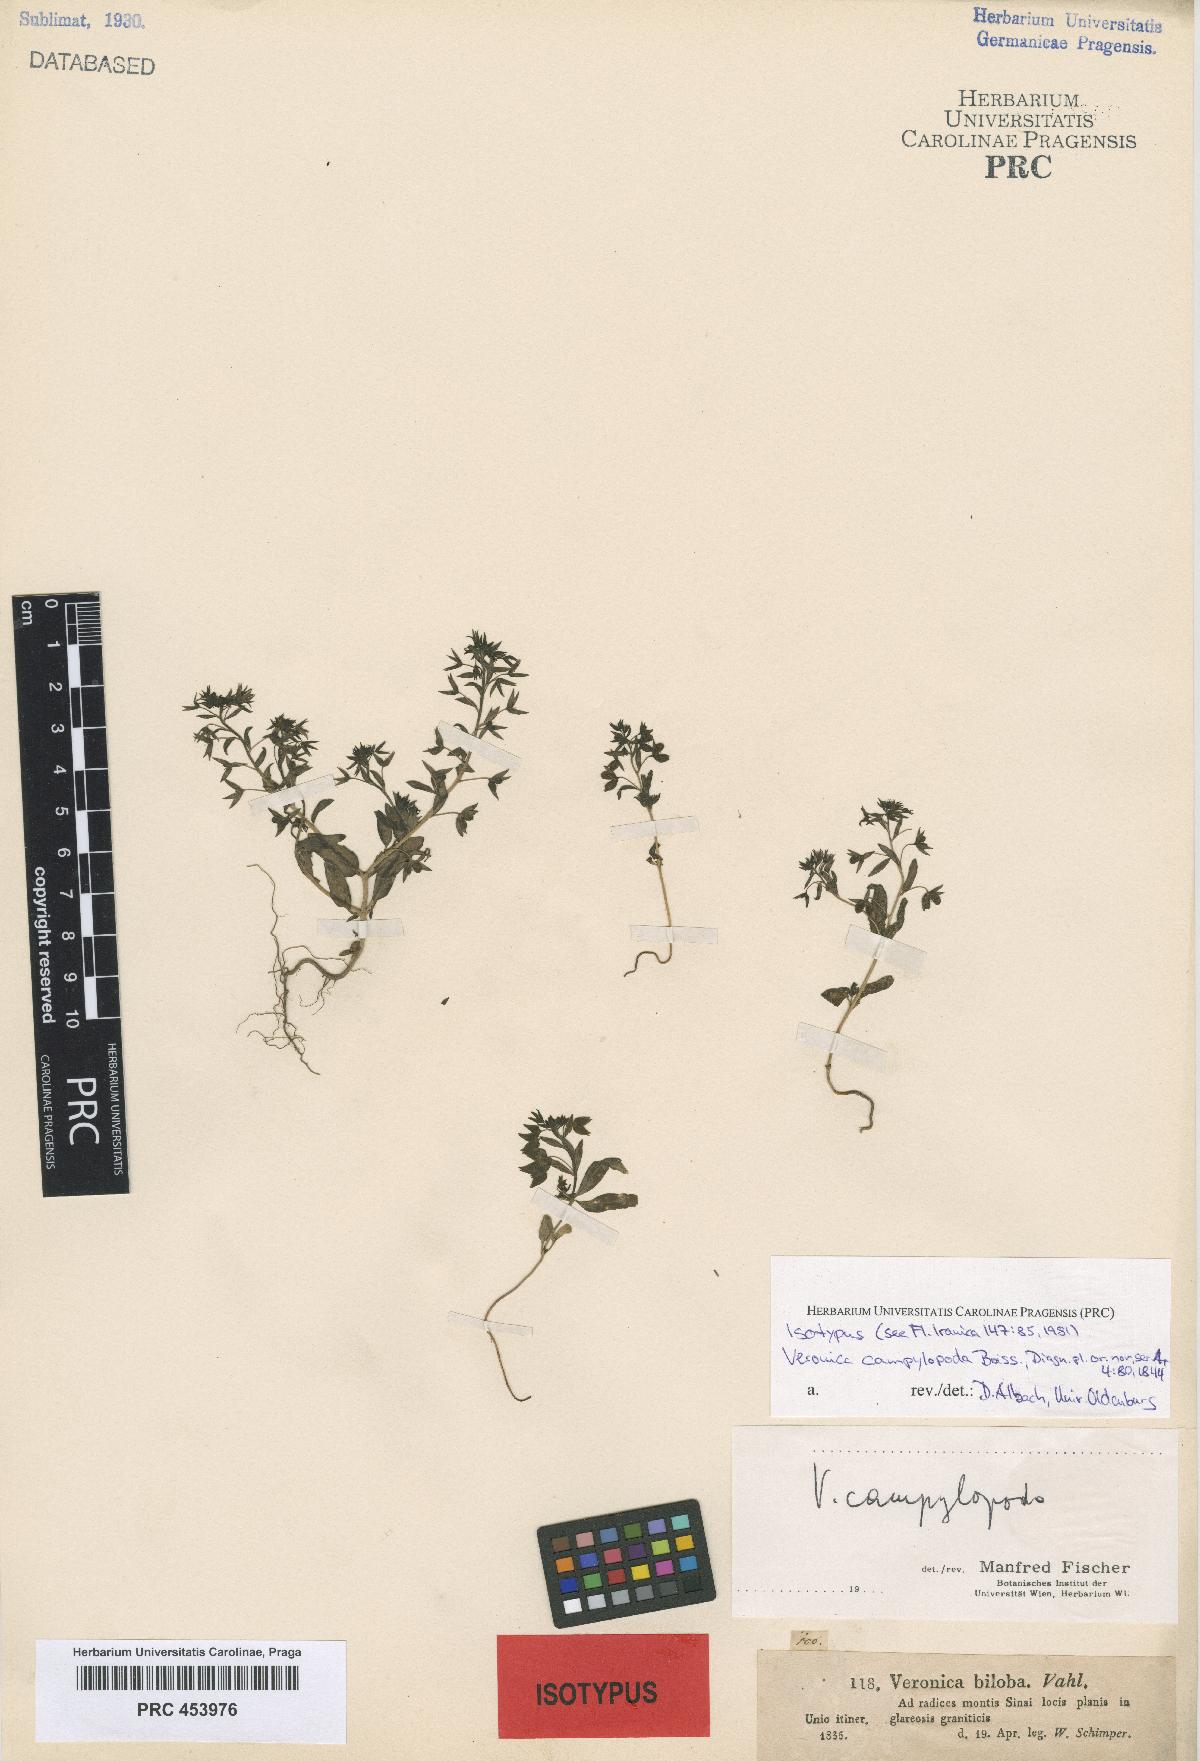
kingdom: Plantae
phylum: Tracheophyta
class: Magnoliopsida
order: Lamiales
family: Scrophulariaceae
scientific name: Scrophulariaceae
